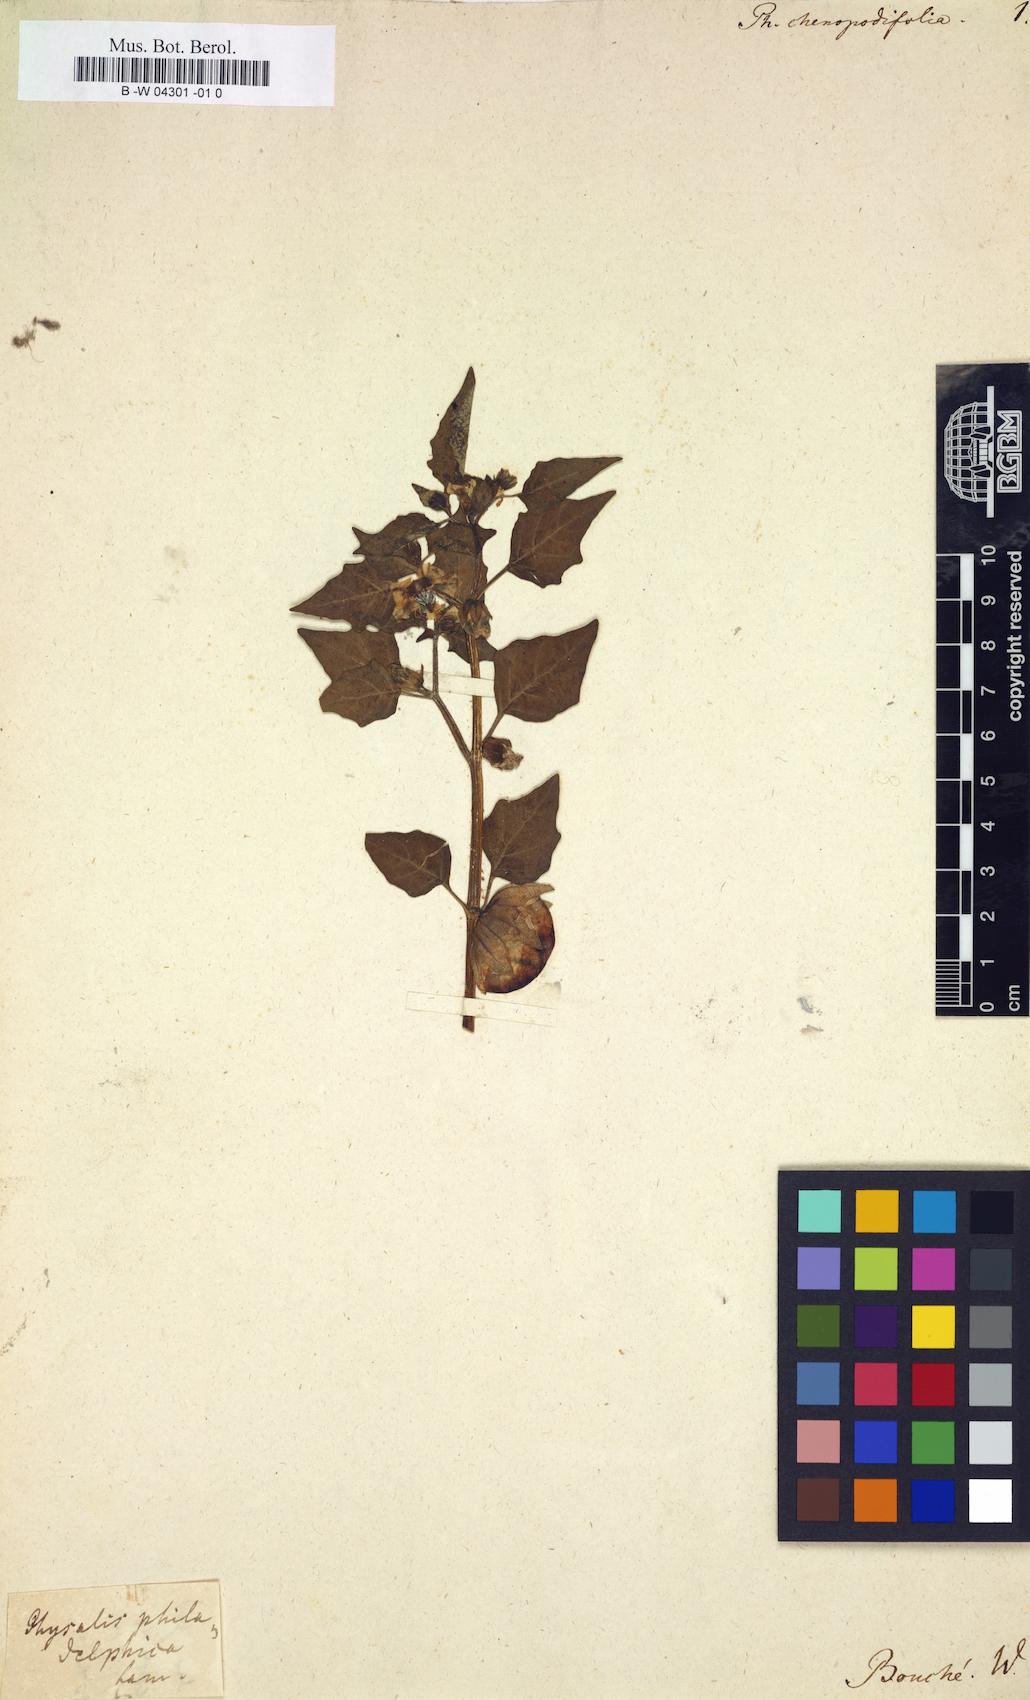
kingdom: Plantae
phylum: Tracheophyta
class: Magnoliopsida
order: Solanales
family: Solanaceae
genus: Physalis
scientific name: Physalis
